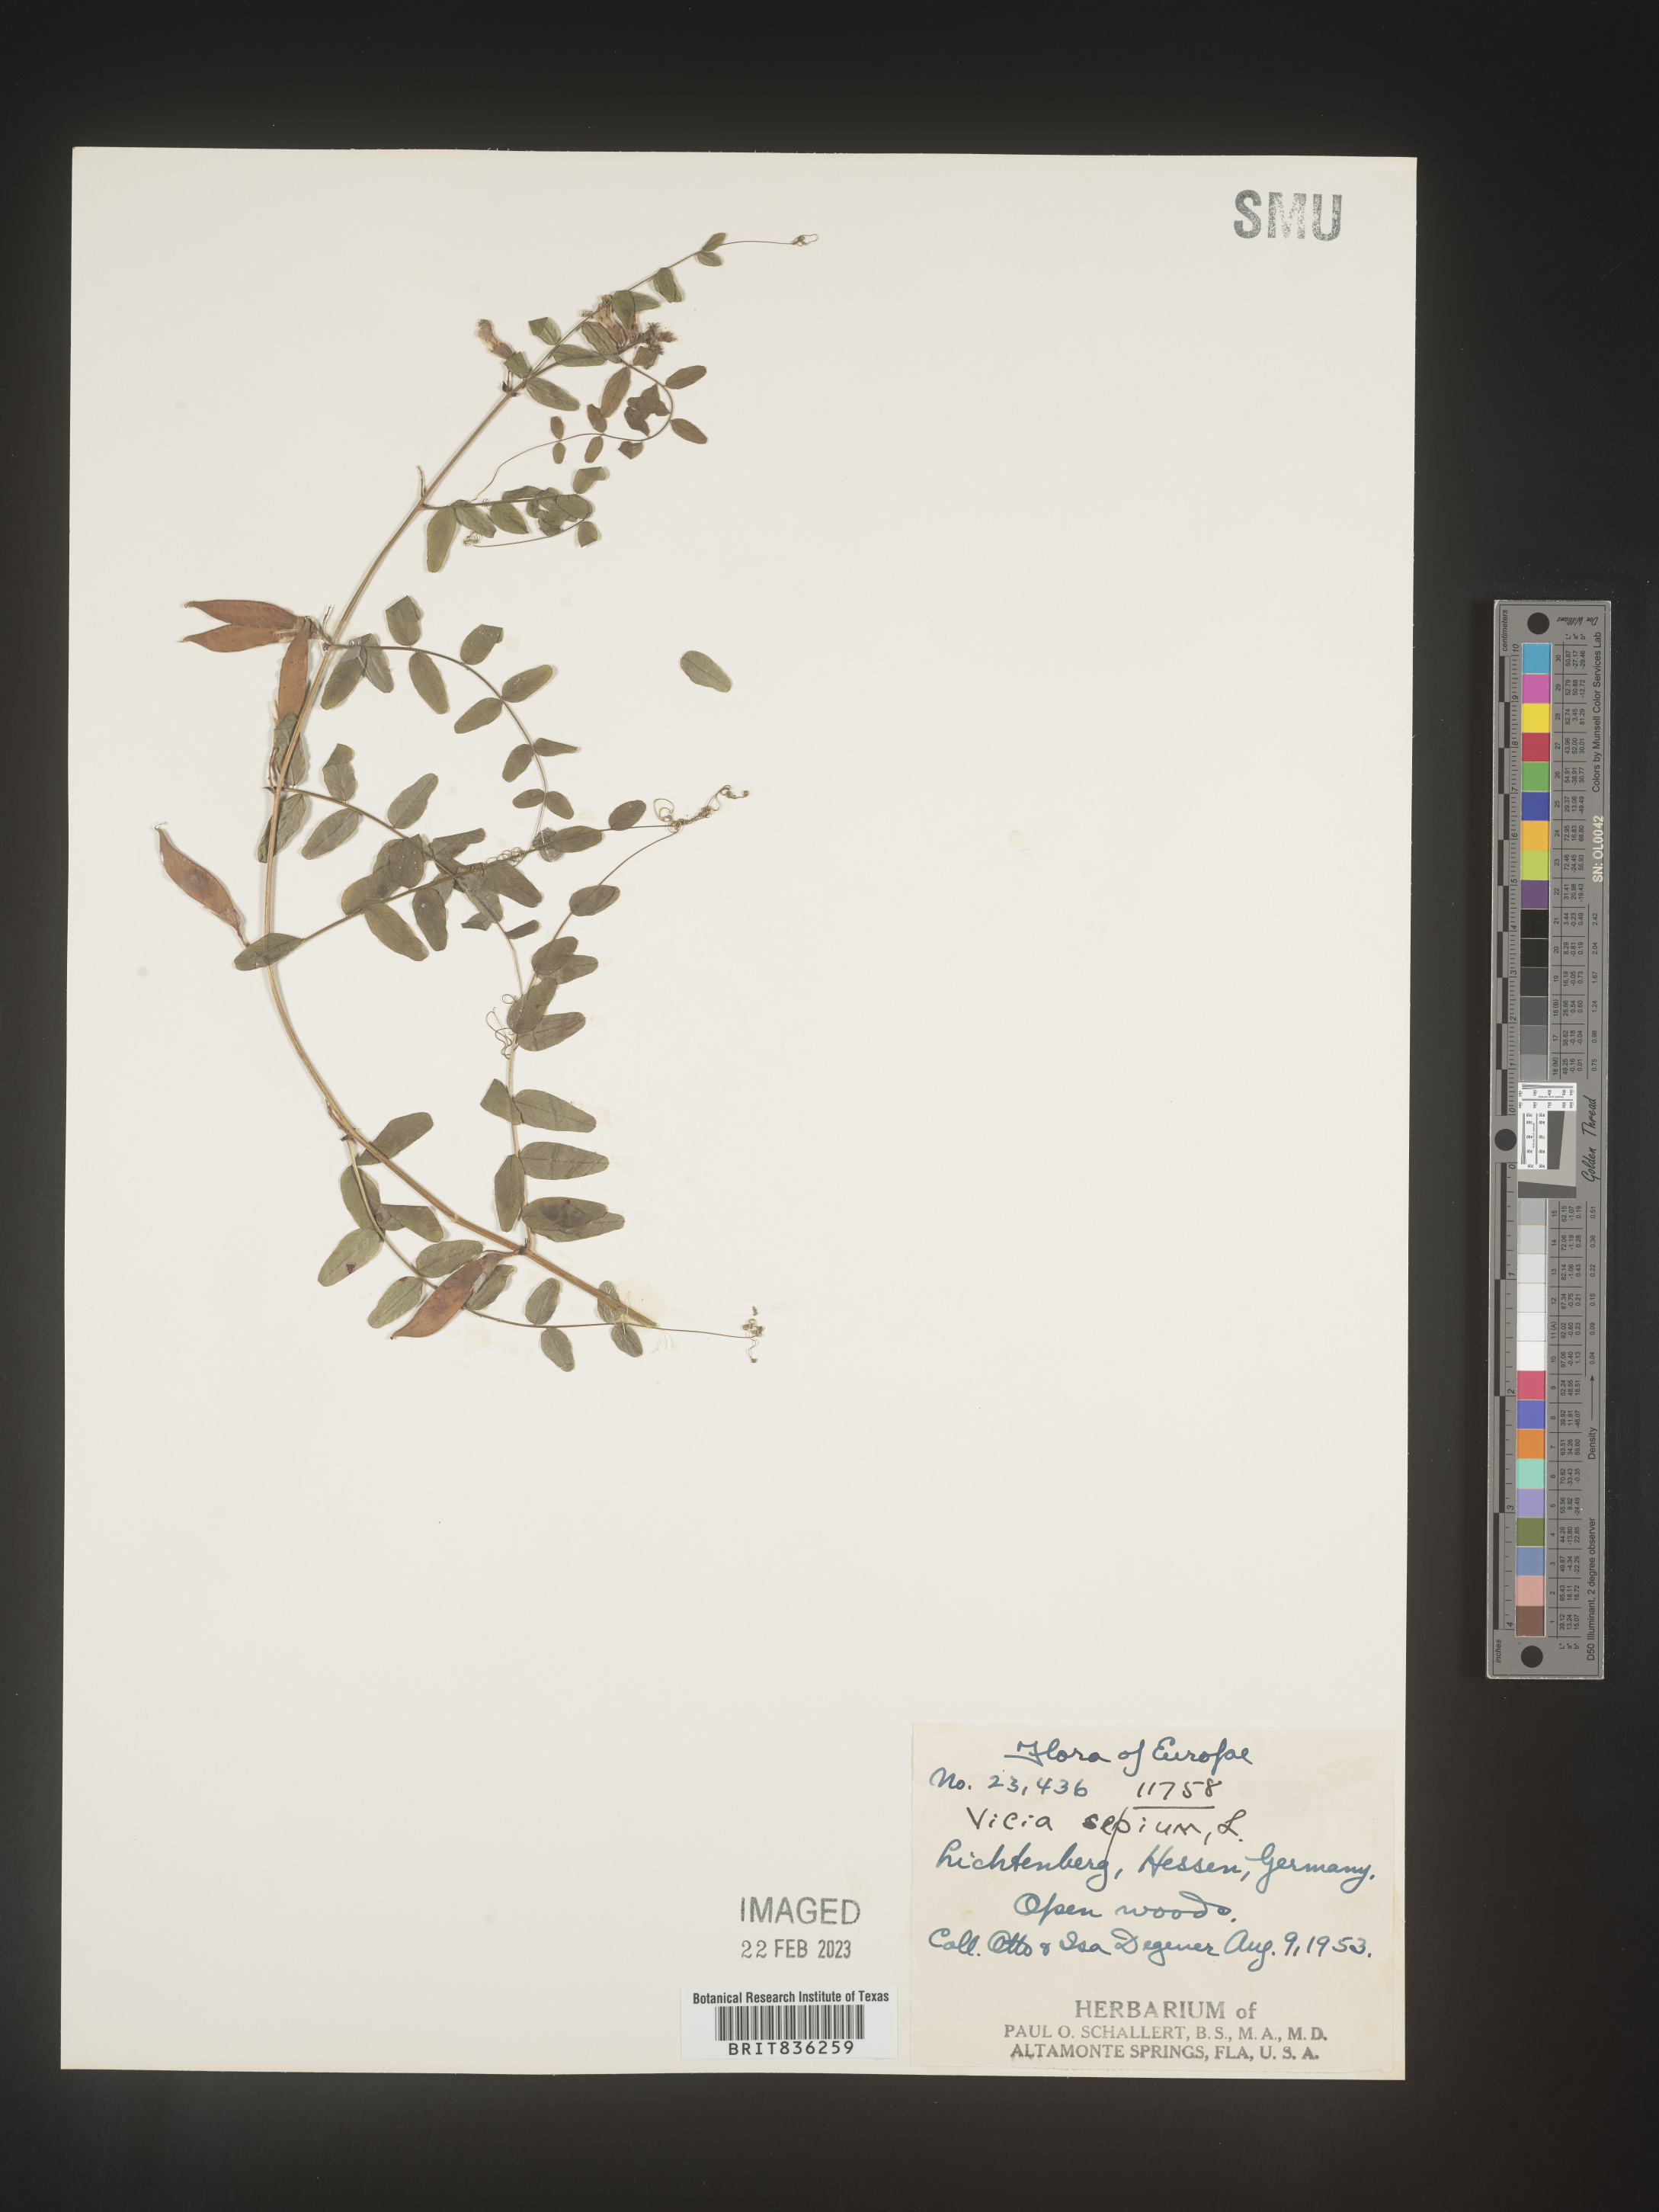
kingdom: Plantae
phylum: Tracheophyta
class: Magnoliopsida
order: Fabales
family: Fabaceae
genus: Vicia
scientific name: Vicia
